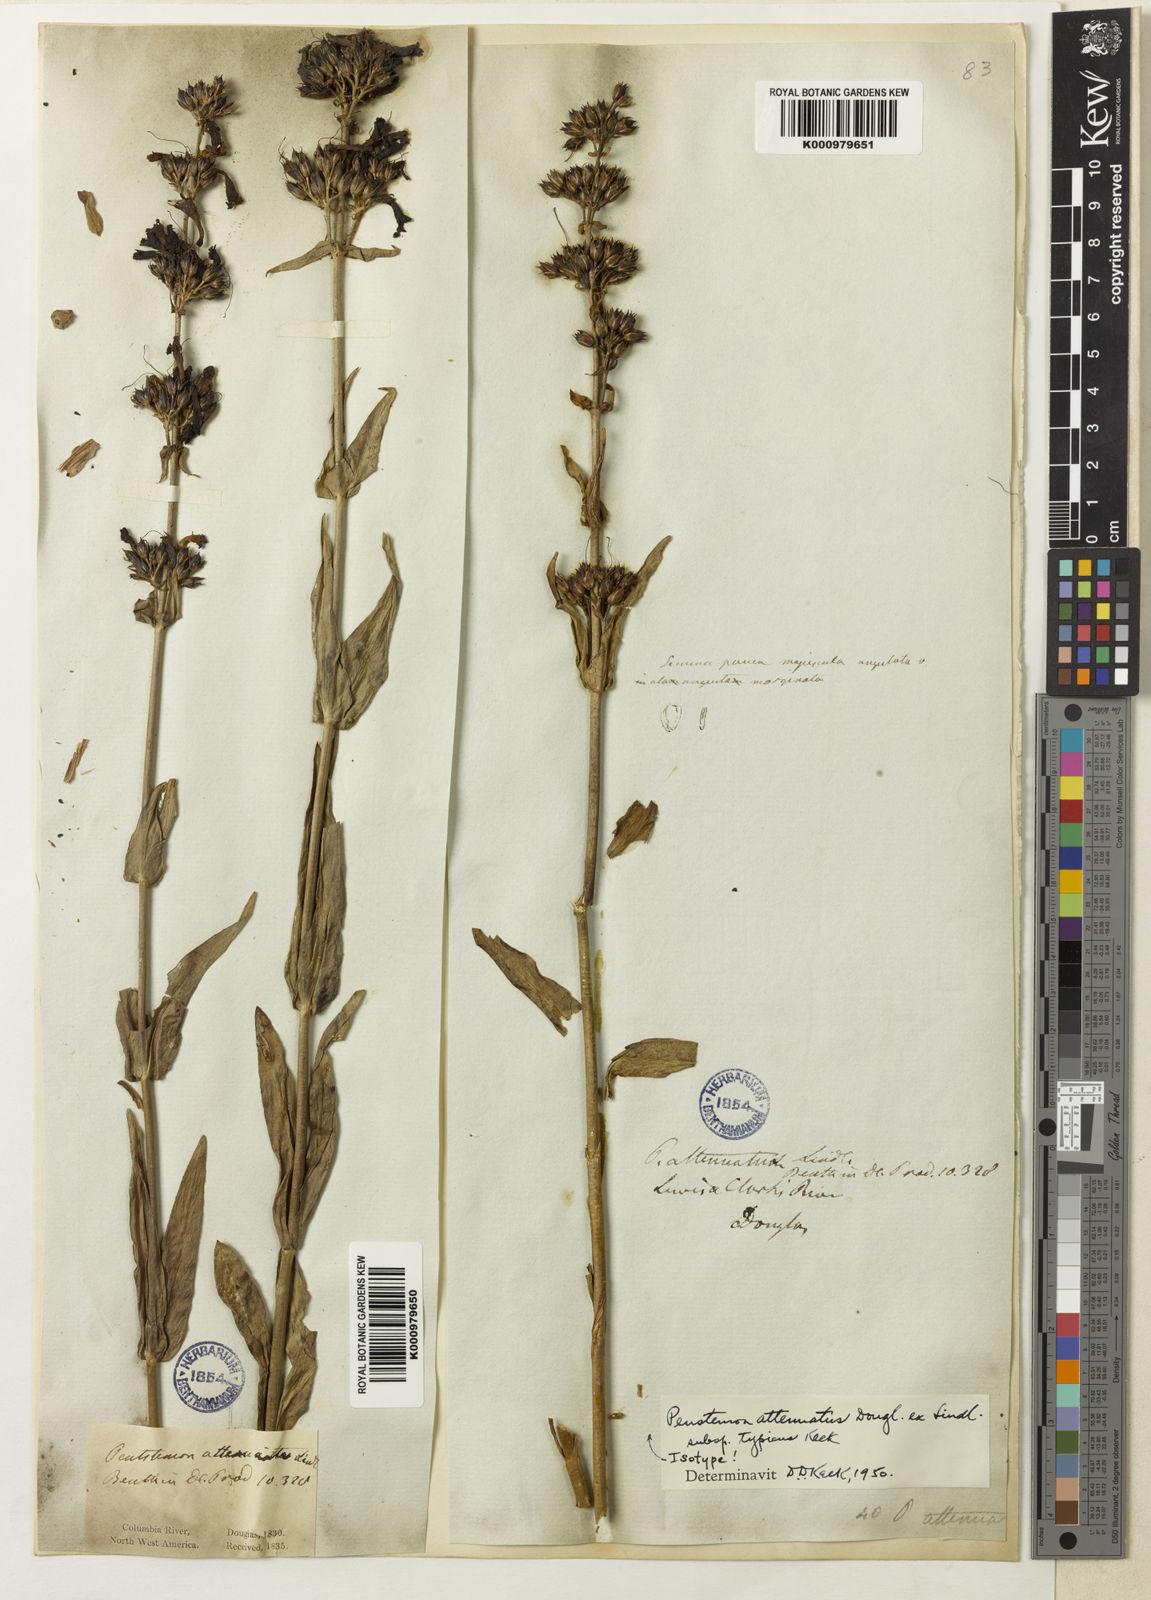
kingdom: Plantae
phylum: Tracheophyta
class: Magnoliopsida
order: Lamiales
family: Plantaginaceae
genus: Penstemon
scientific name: Penstemon
